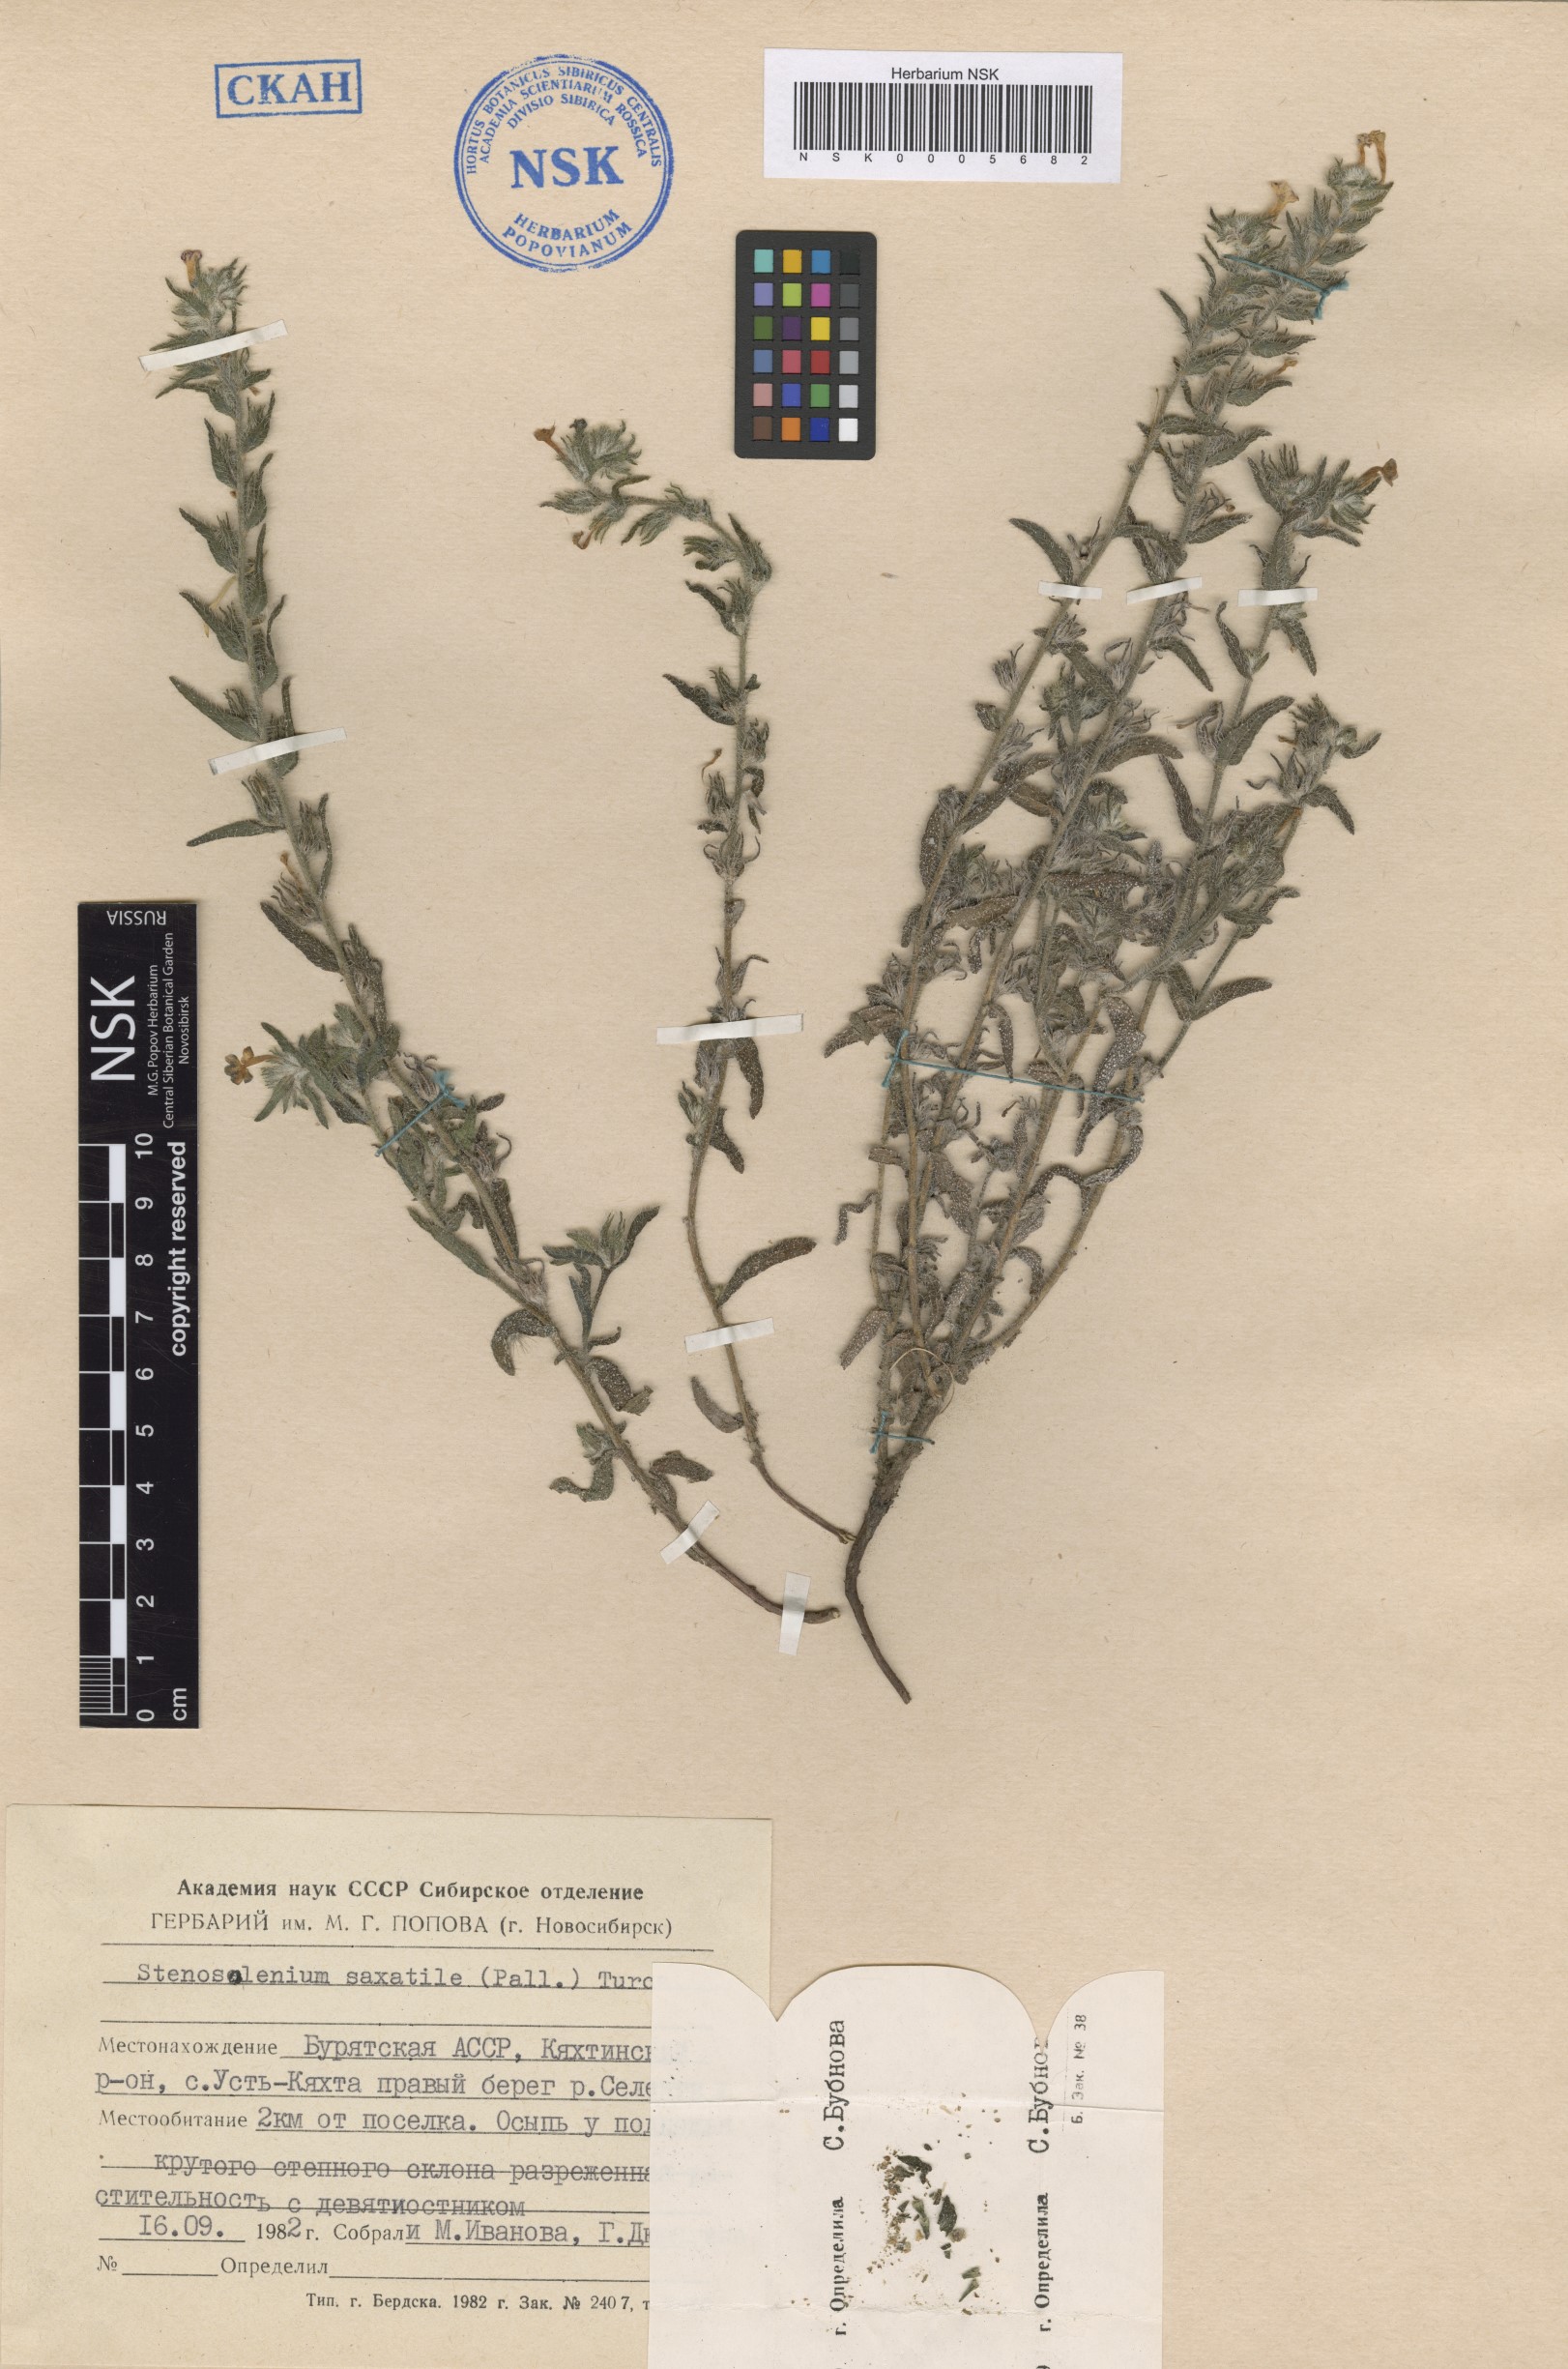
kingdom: Plantae
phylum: Tracheophyta
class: Magnoliopsida
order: Boraginales
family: Boraginaceae
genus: Stenosolenium
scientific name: Stenosolenium saxatile
